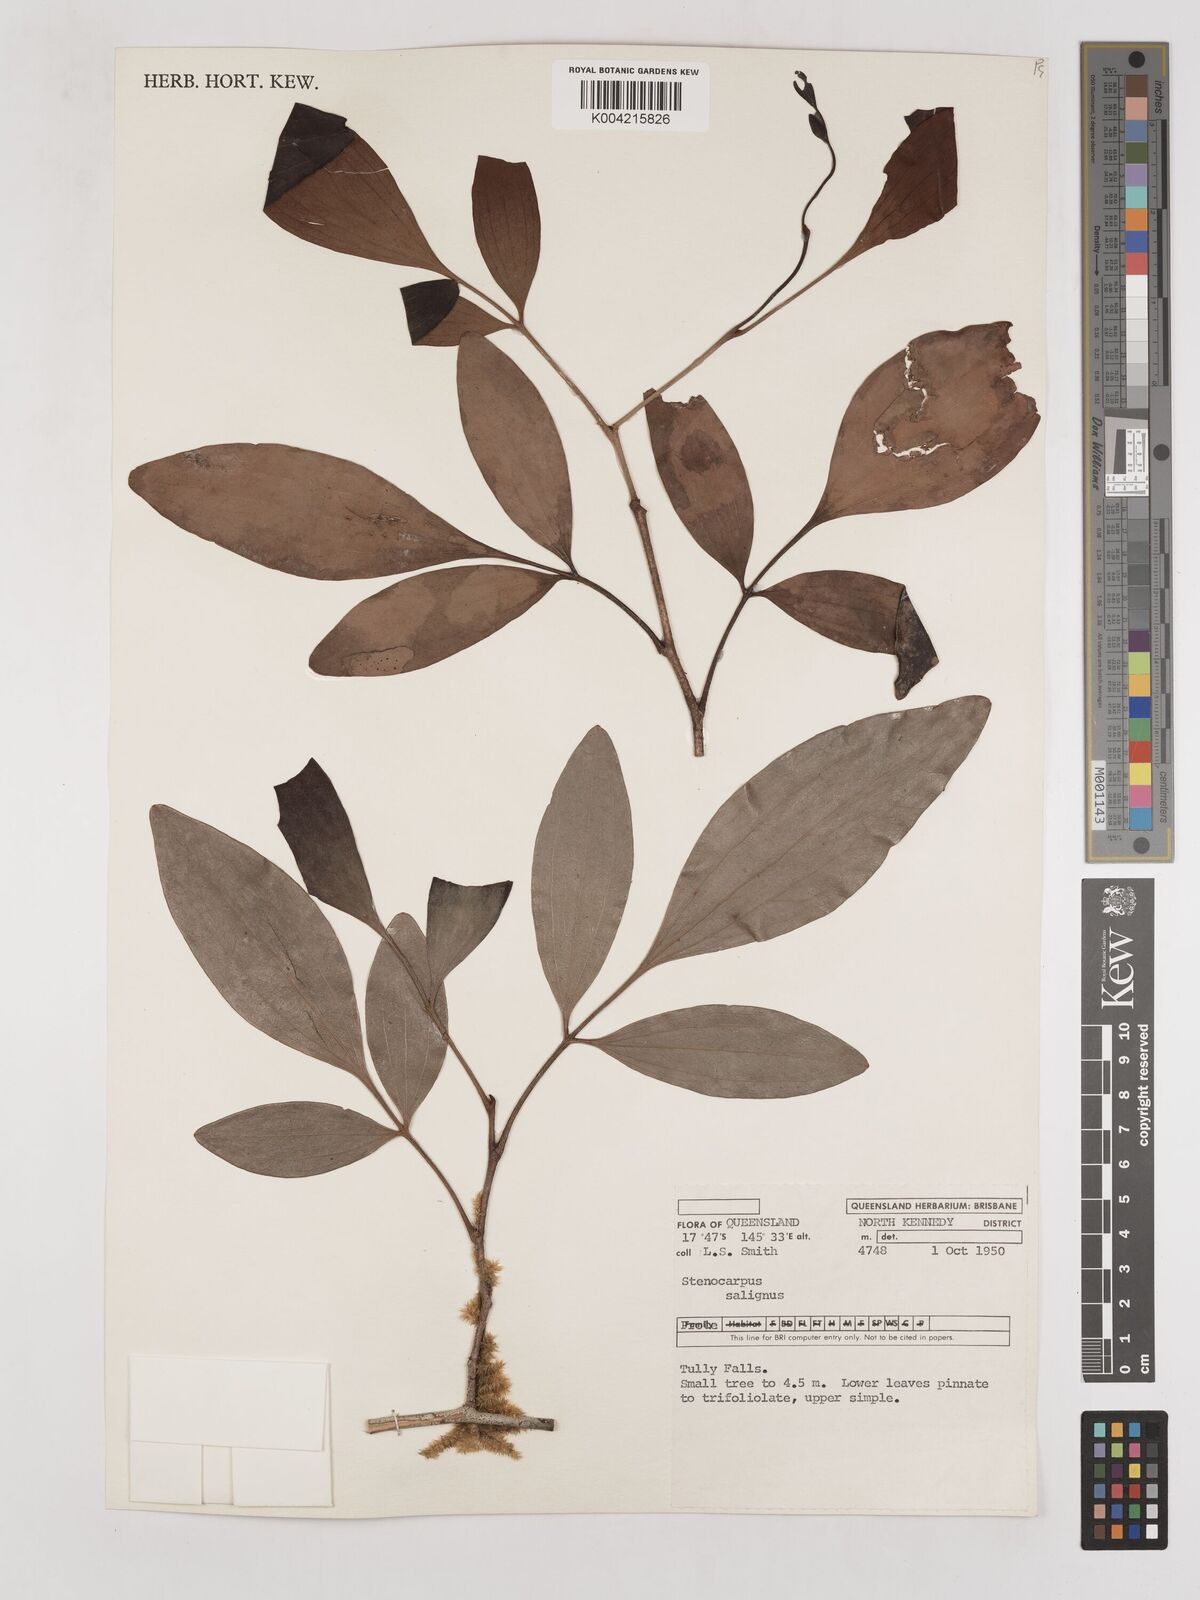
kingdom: Plantae
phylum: Tracheophyta
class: Magnoliopsida
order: Proteales
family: Proteaceae
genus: Stenocarpus
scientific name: Stenocarpus salignus
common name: Red silky-oak
